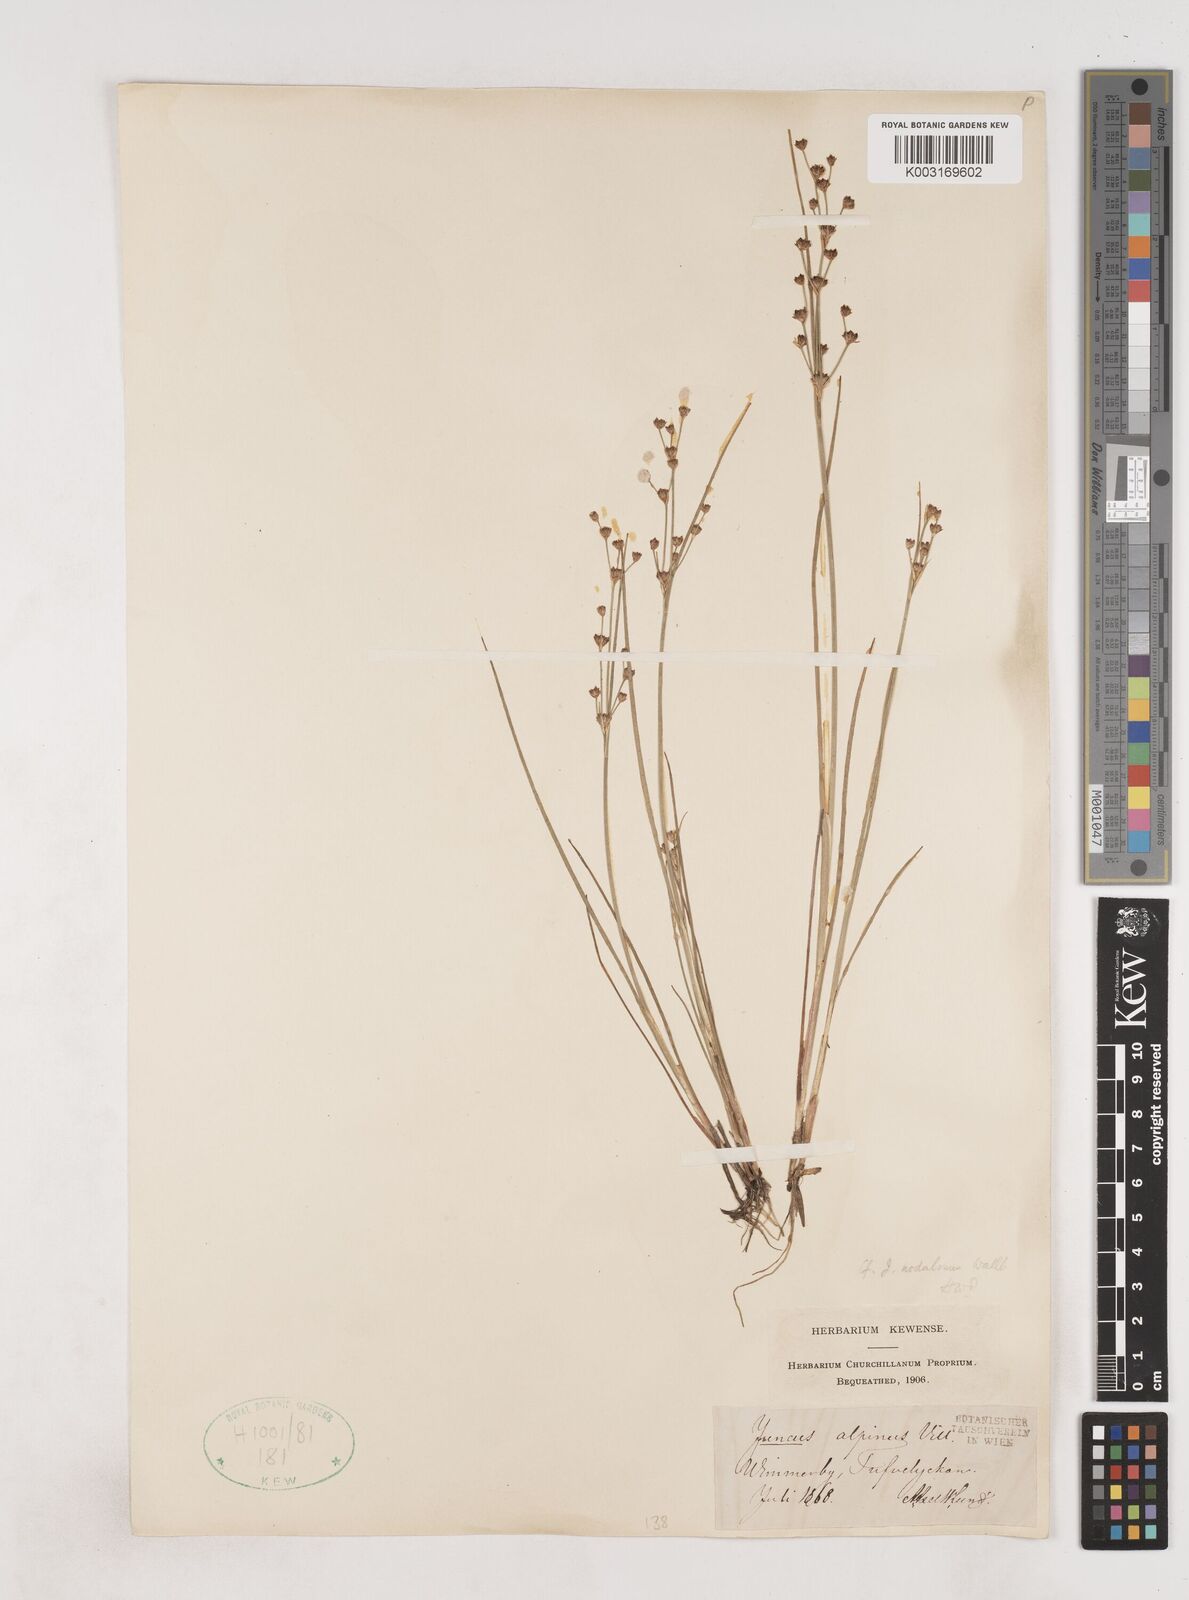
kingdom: Plantae
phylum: Tracheophyta
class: Liliopsida
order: Poales
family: Juncaceae
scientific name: Juncaceae
